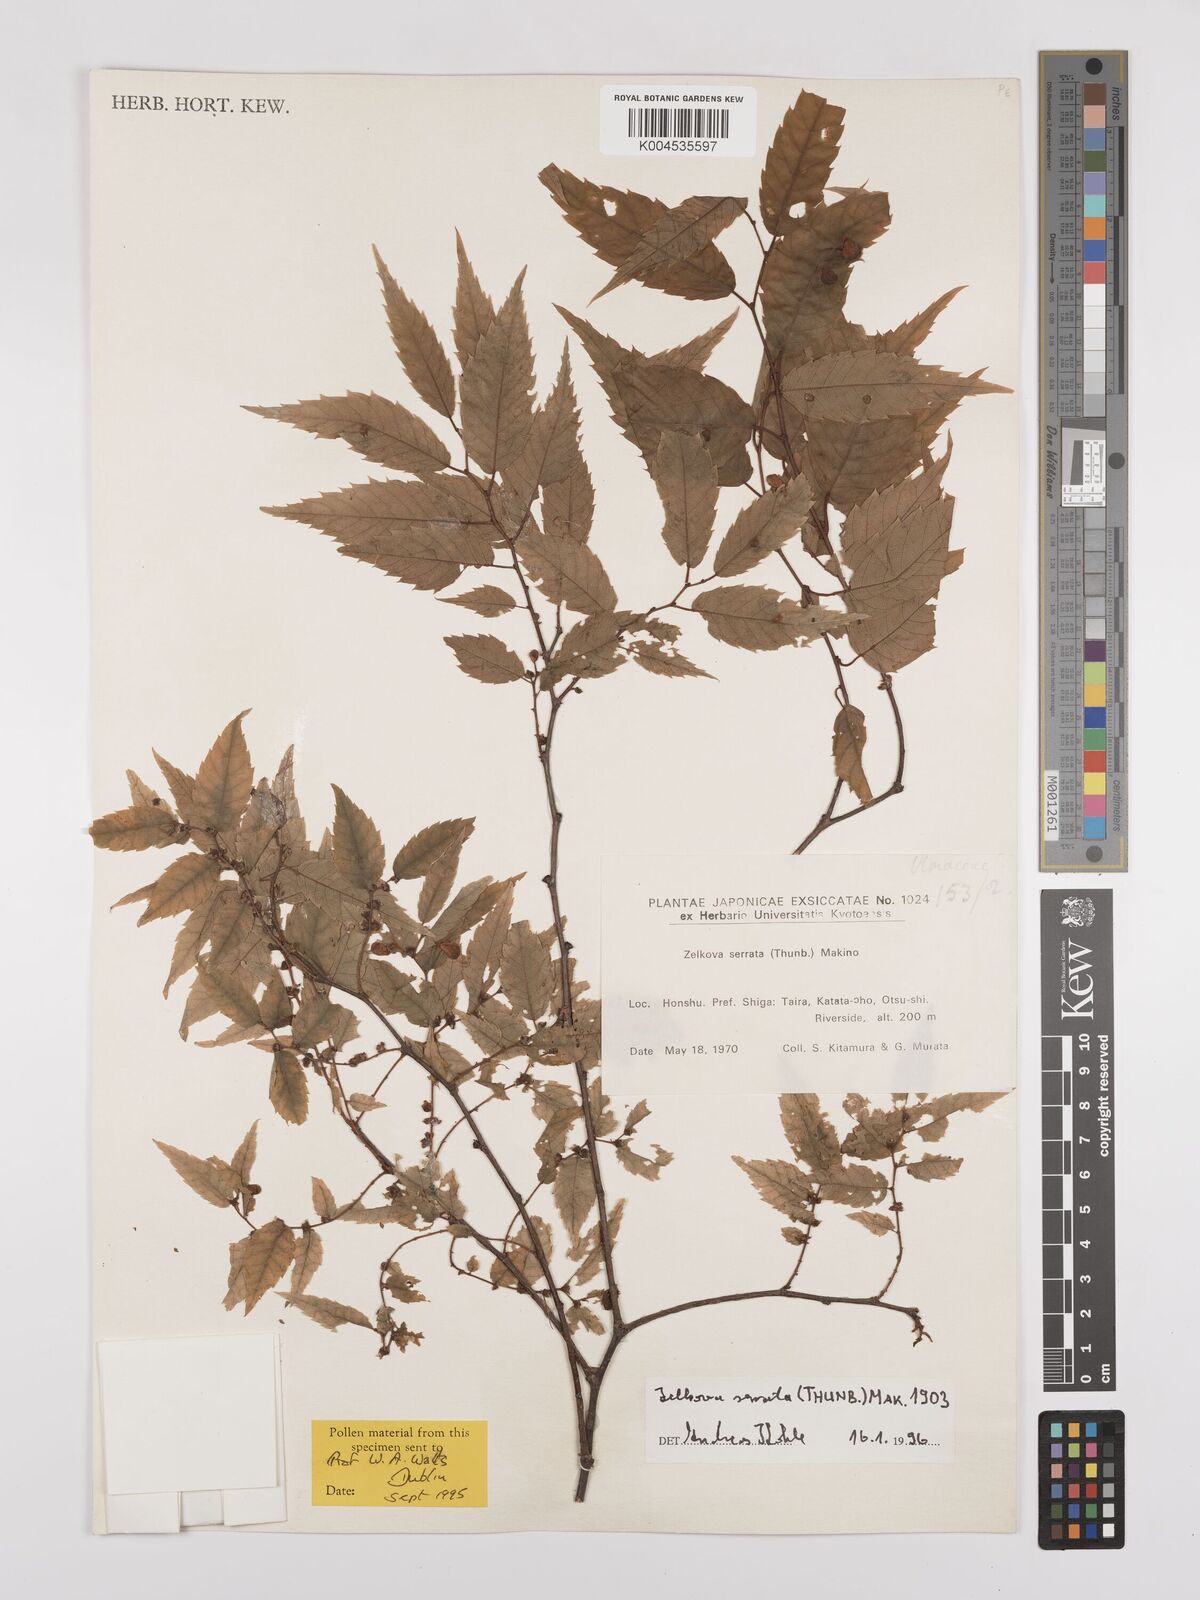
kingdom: Plantae
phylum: Tracheophyta
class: Magnoliopsida
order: Rosales
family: Ulmaceae
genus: Zelkova
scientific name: Zelkova serrata
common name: Japanese zelkova
